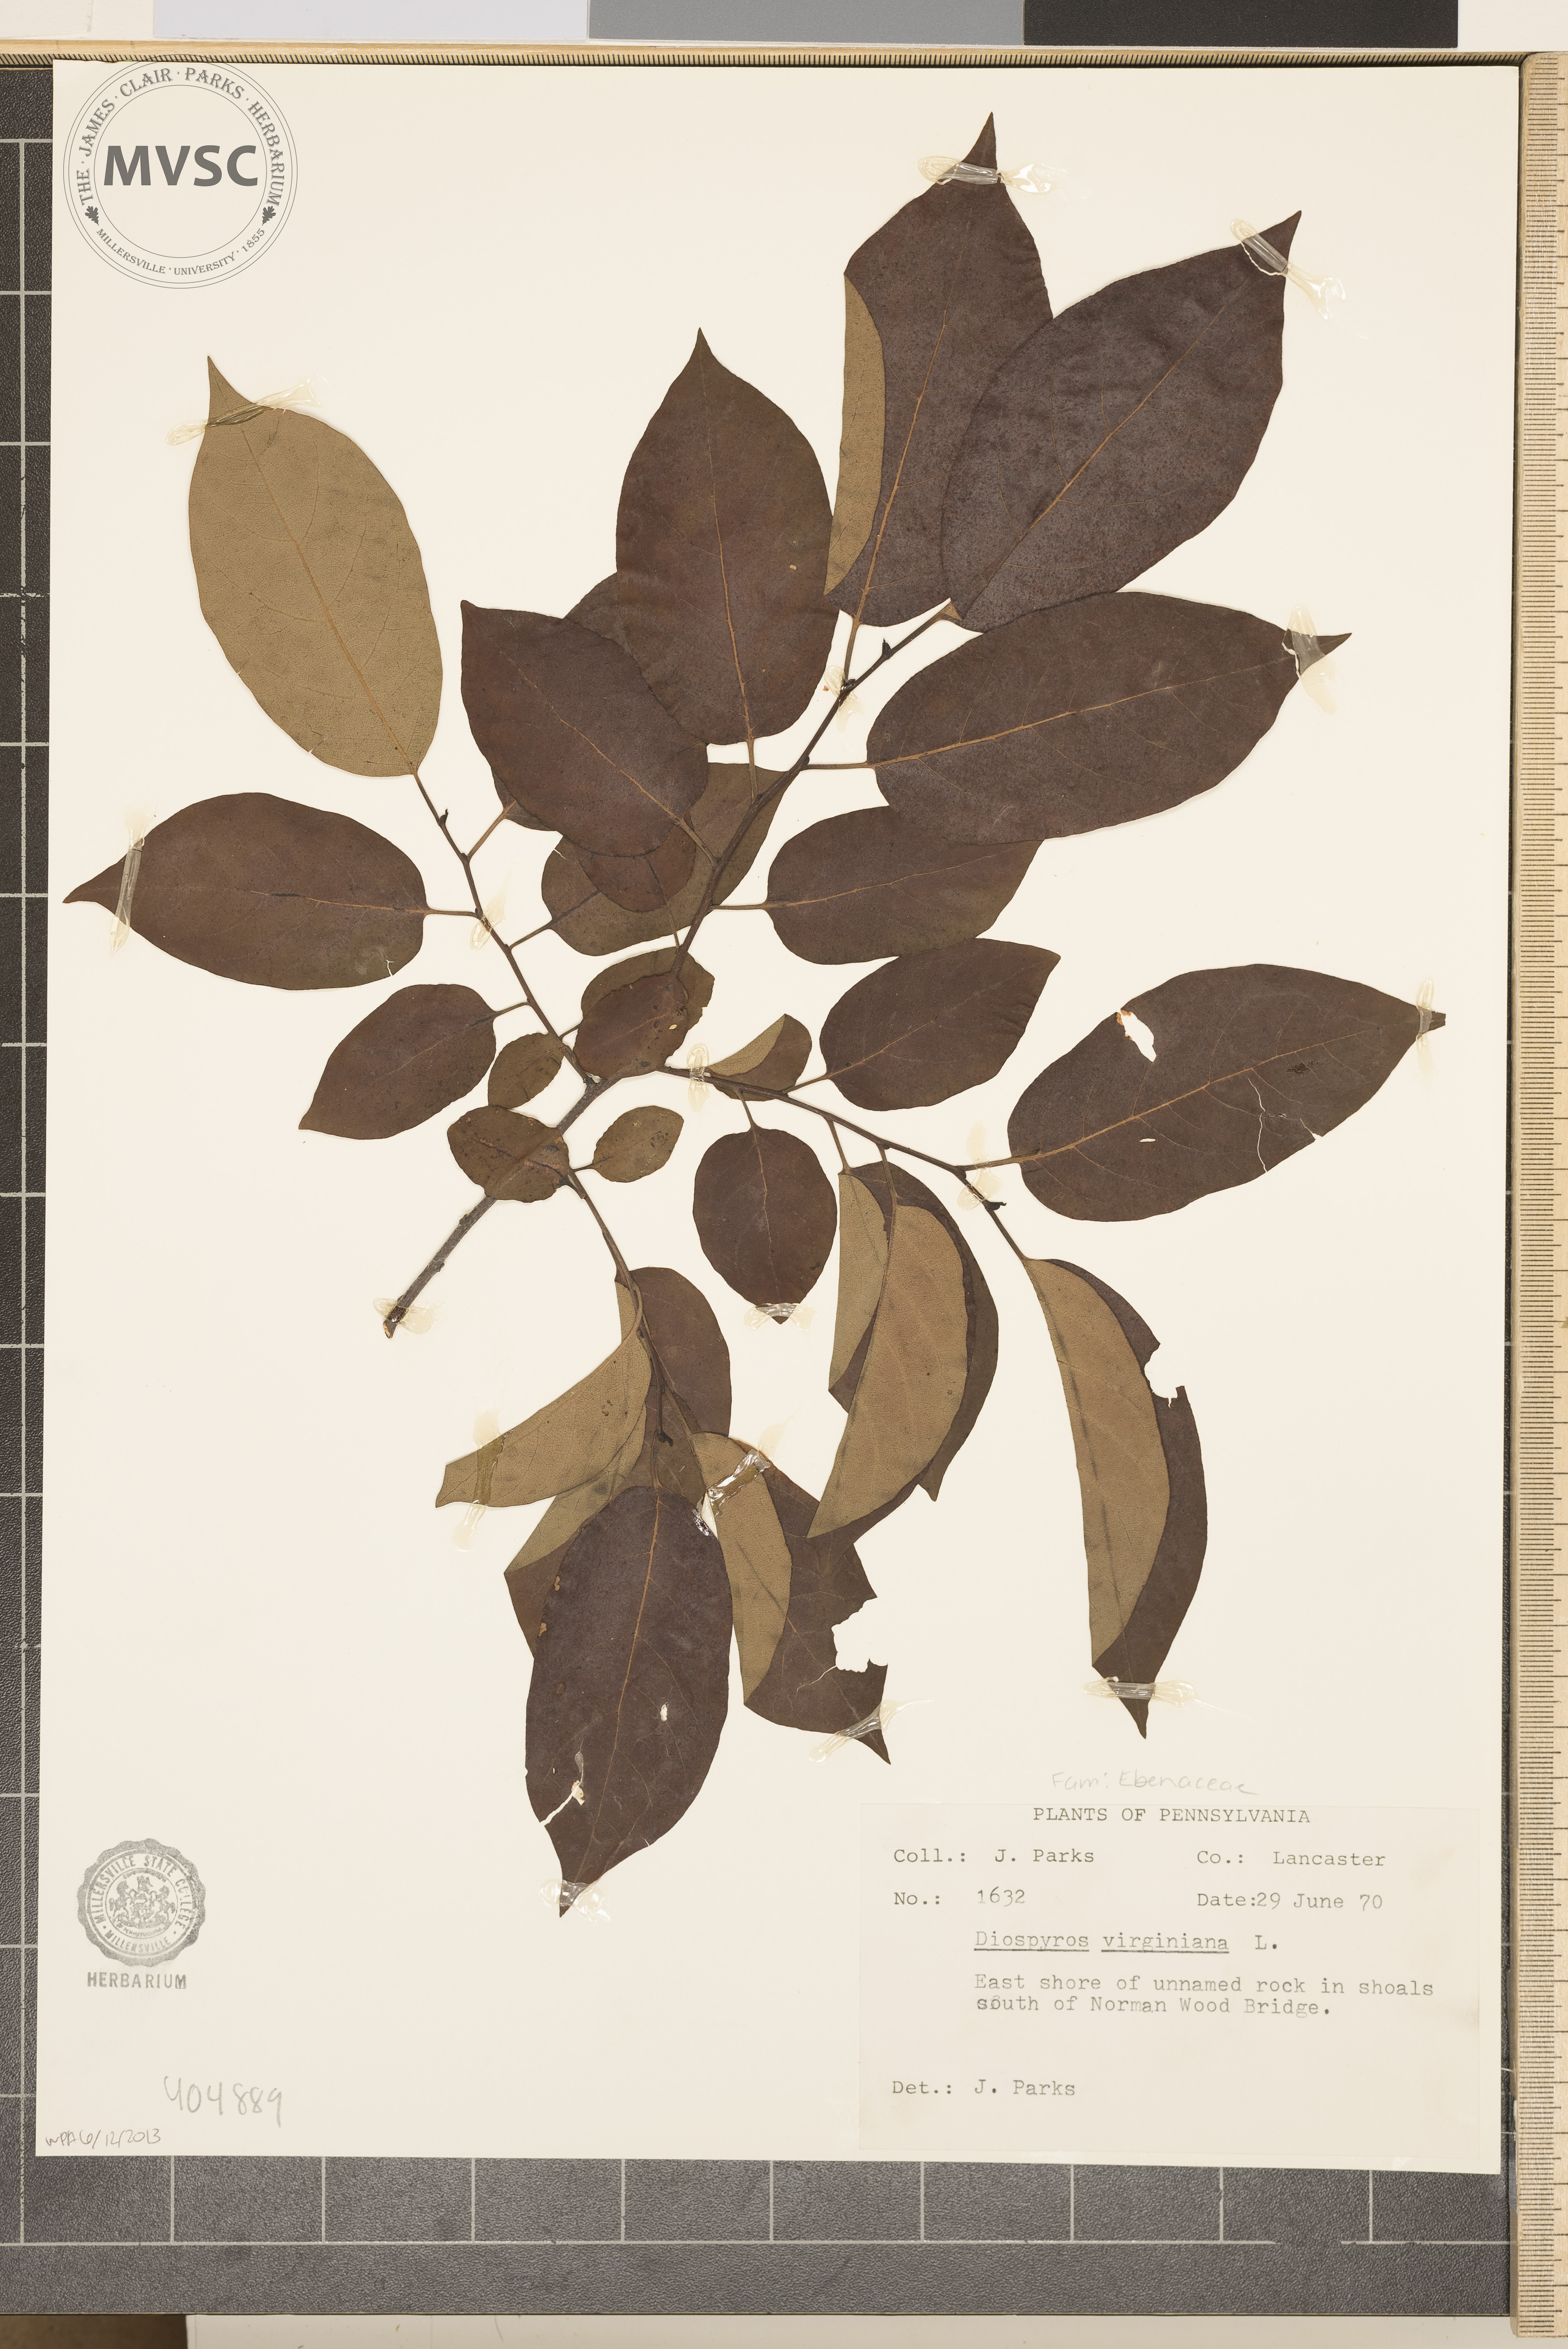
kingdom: Plantae
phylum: Tracheophyta
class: Magnoliopsida
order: Ericales
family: Ebenaceae
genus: Diospyros
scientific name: Diospyros virginiana
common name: Persimmon
